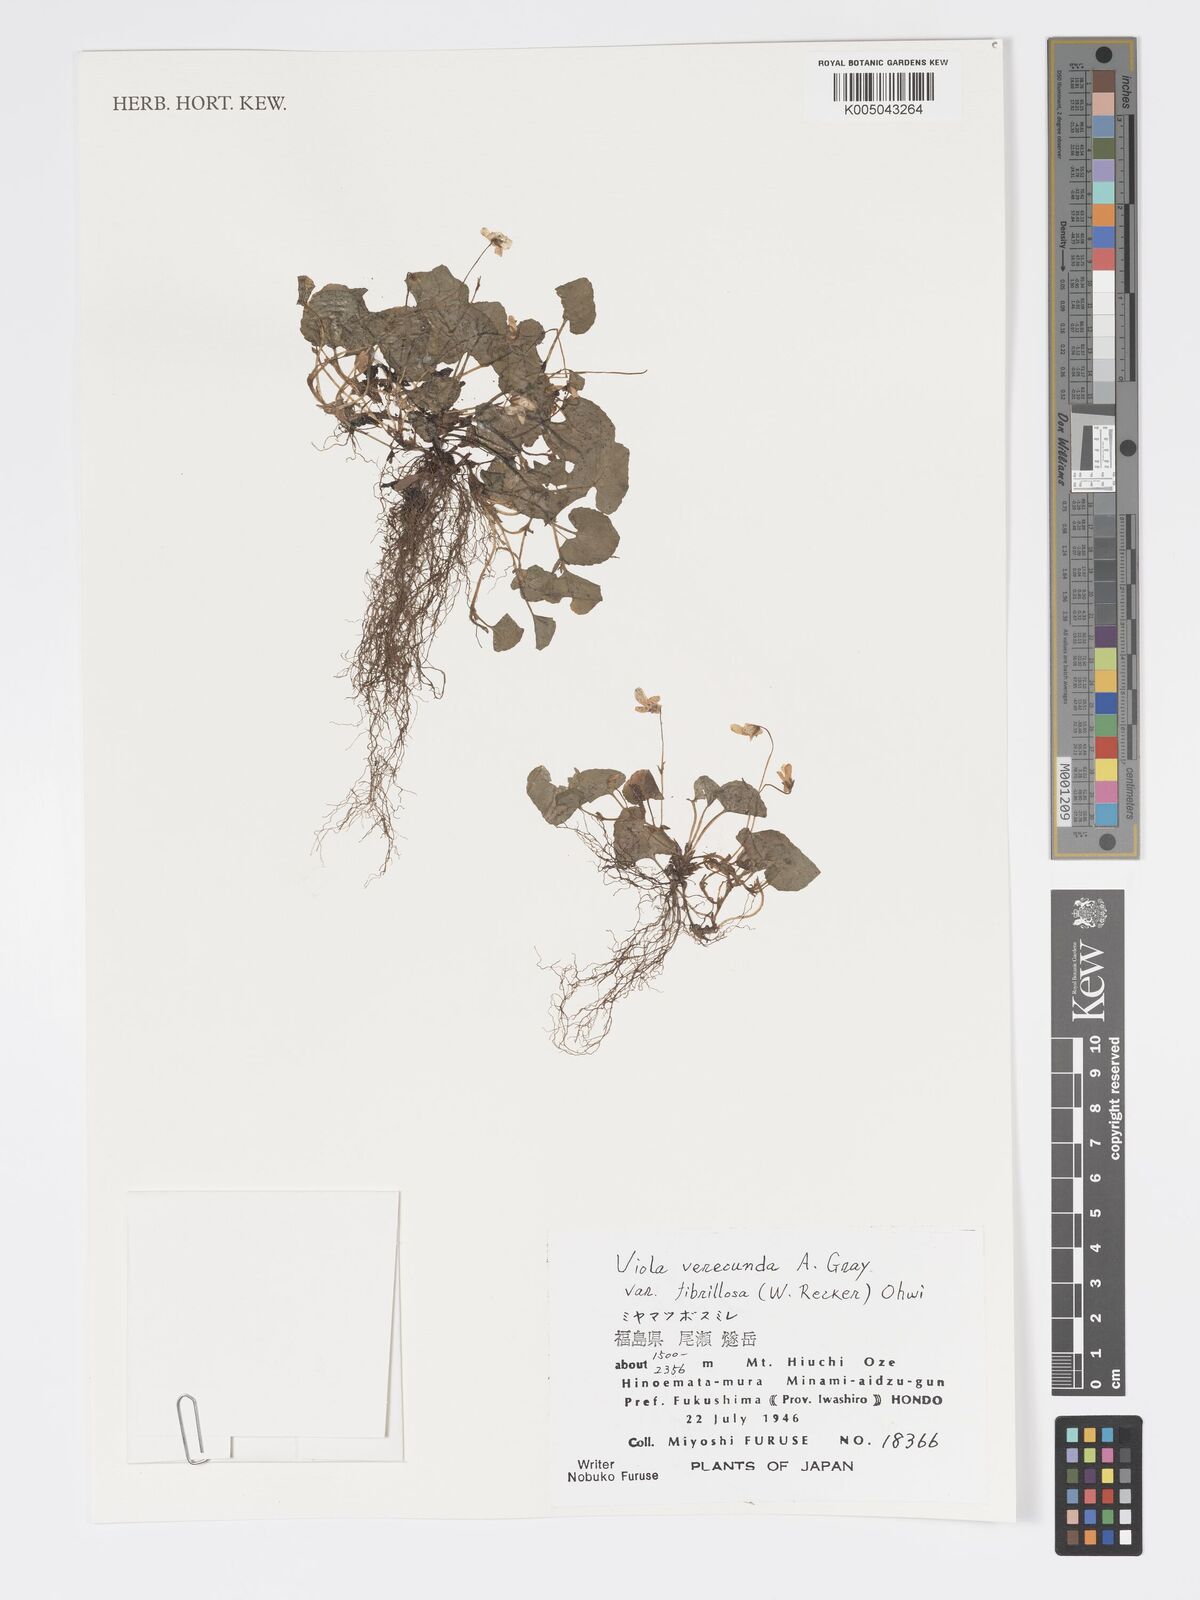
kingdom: Plantae
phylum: Tracheophyta
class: Magnoliopsida
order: Malpighiales
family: Violaceae
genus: Viola
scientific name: Viola hamiltoniana
